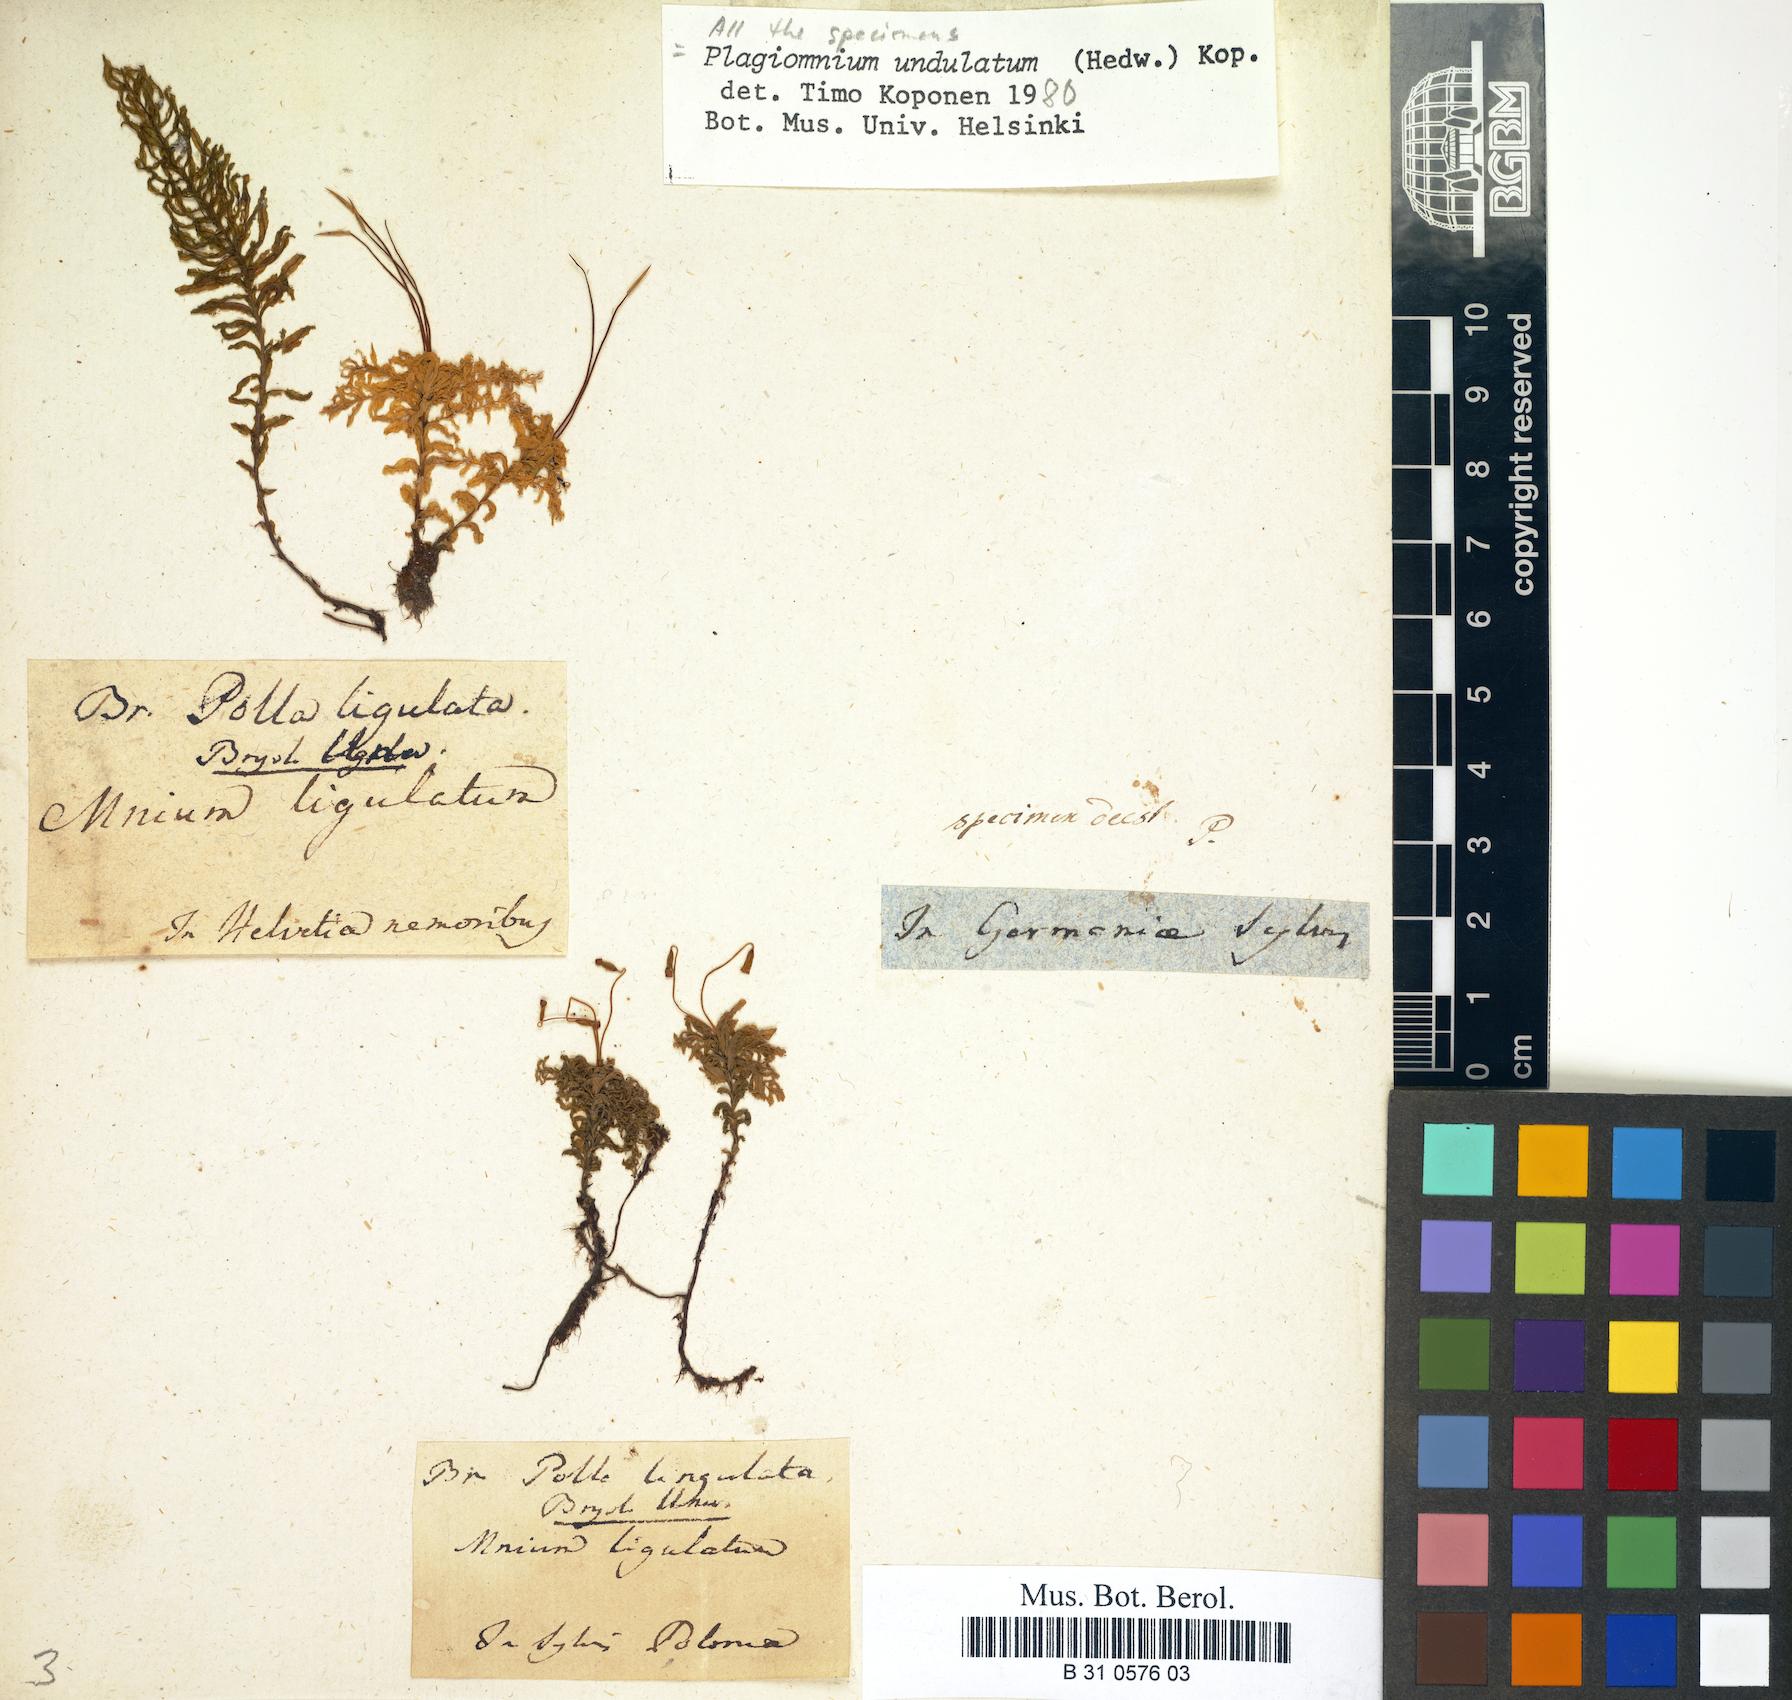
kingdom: Plantae
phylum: Bryophyta
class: Bryopsida
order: Bryales
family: Mniaceae
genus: Plagiomnium
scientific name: Plagiomnium undulatum
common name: Hart's-tongue thyme-moss
